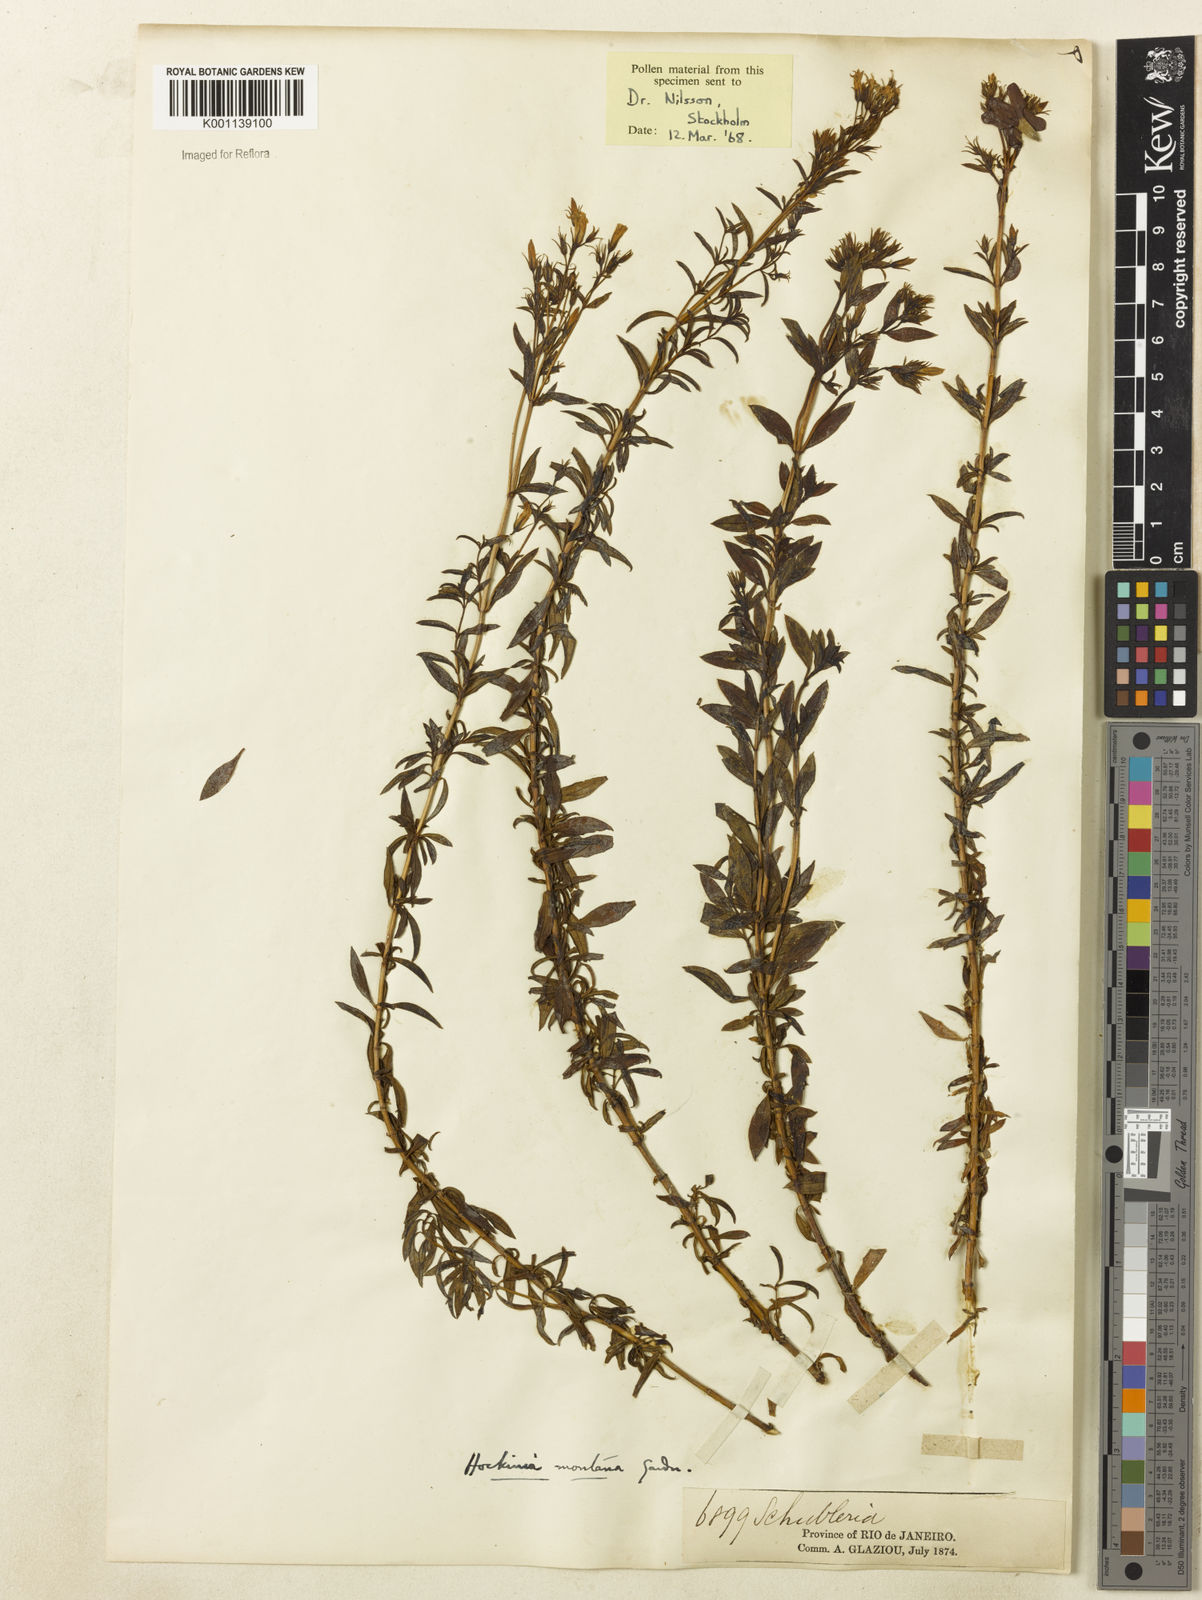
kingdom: Plantae
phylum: Tracheophyta
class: Magnoliopsida
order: Gentianales
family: Gentianaceae
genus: Hockinia
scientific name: Hockinia montana
